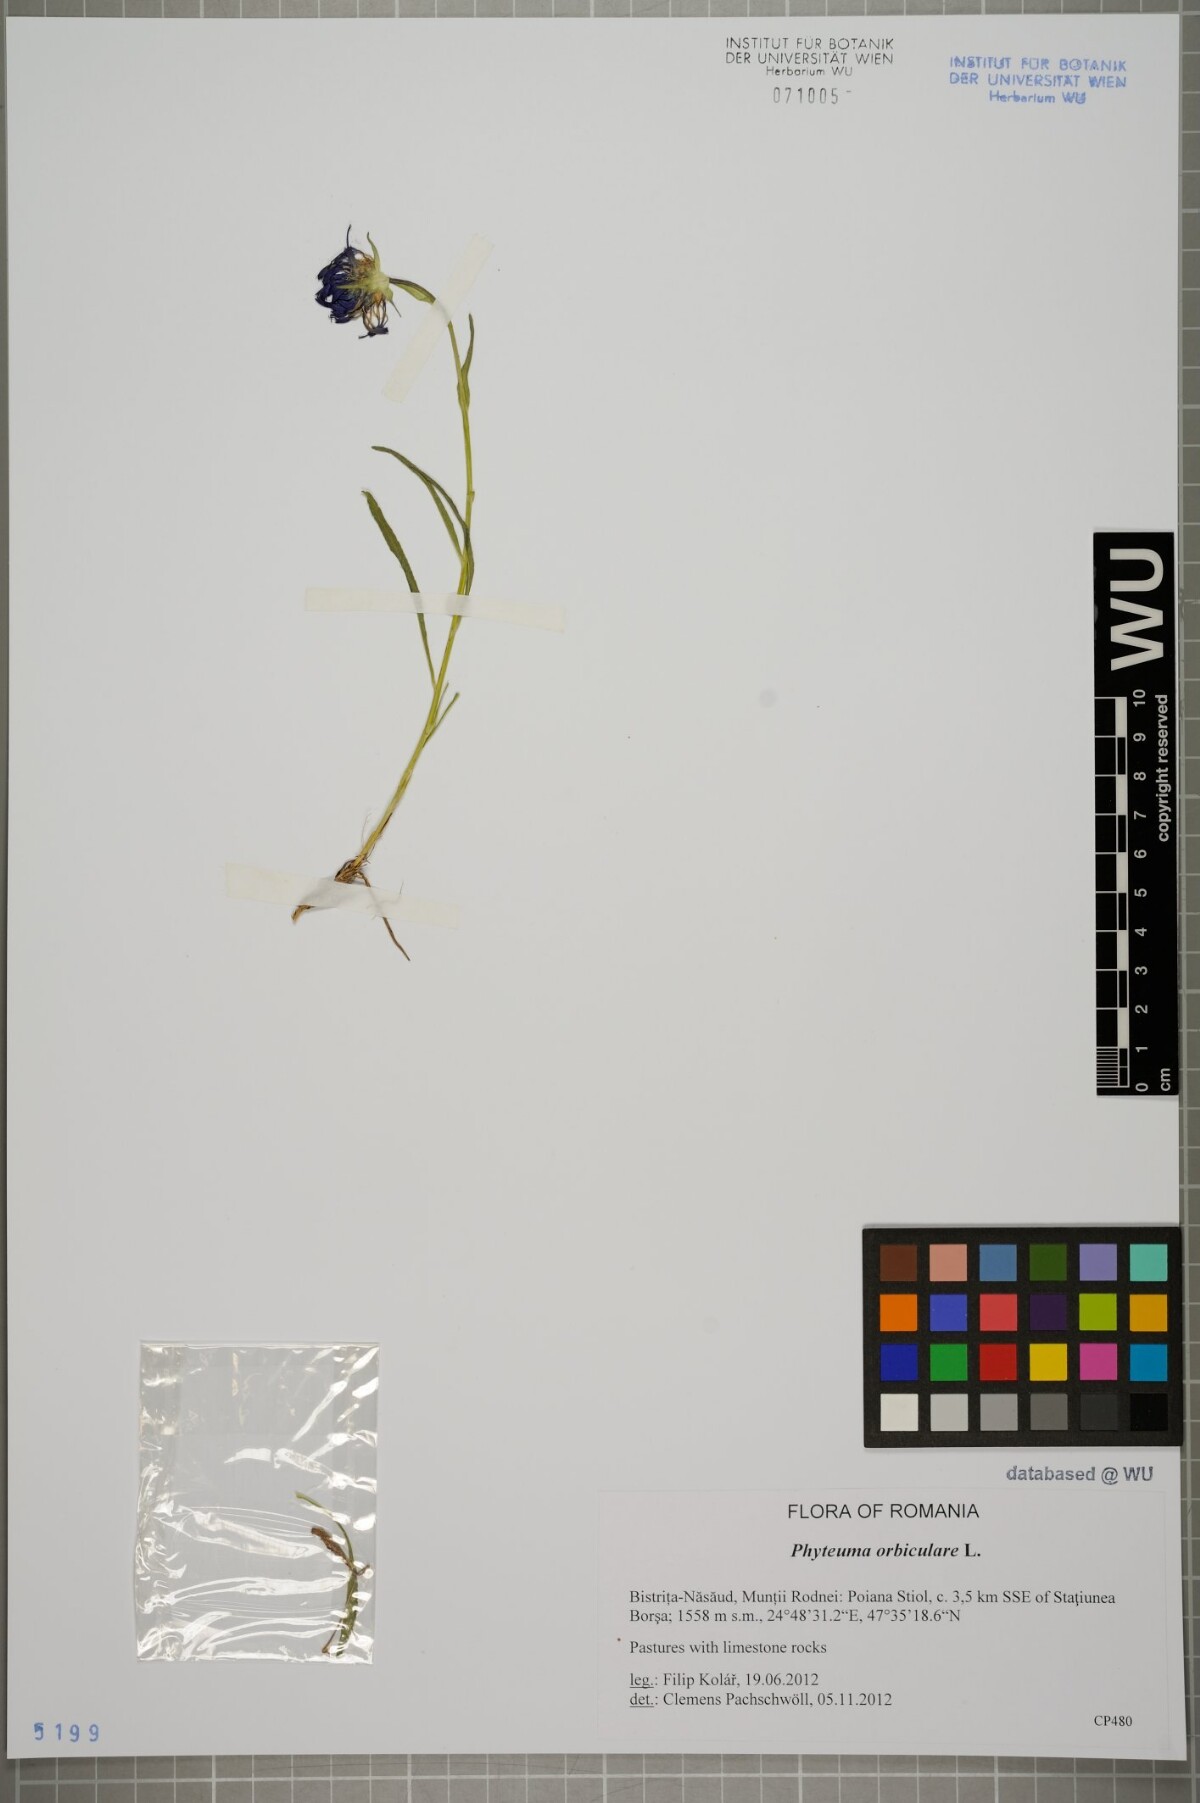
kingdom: Plantae
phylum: Tracheophyta
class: Magnoliopsida
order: Asterales
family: Campanulaceae
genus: Phyteuma
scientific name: Phyteuma orbiculare
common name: Round-headed rampion
